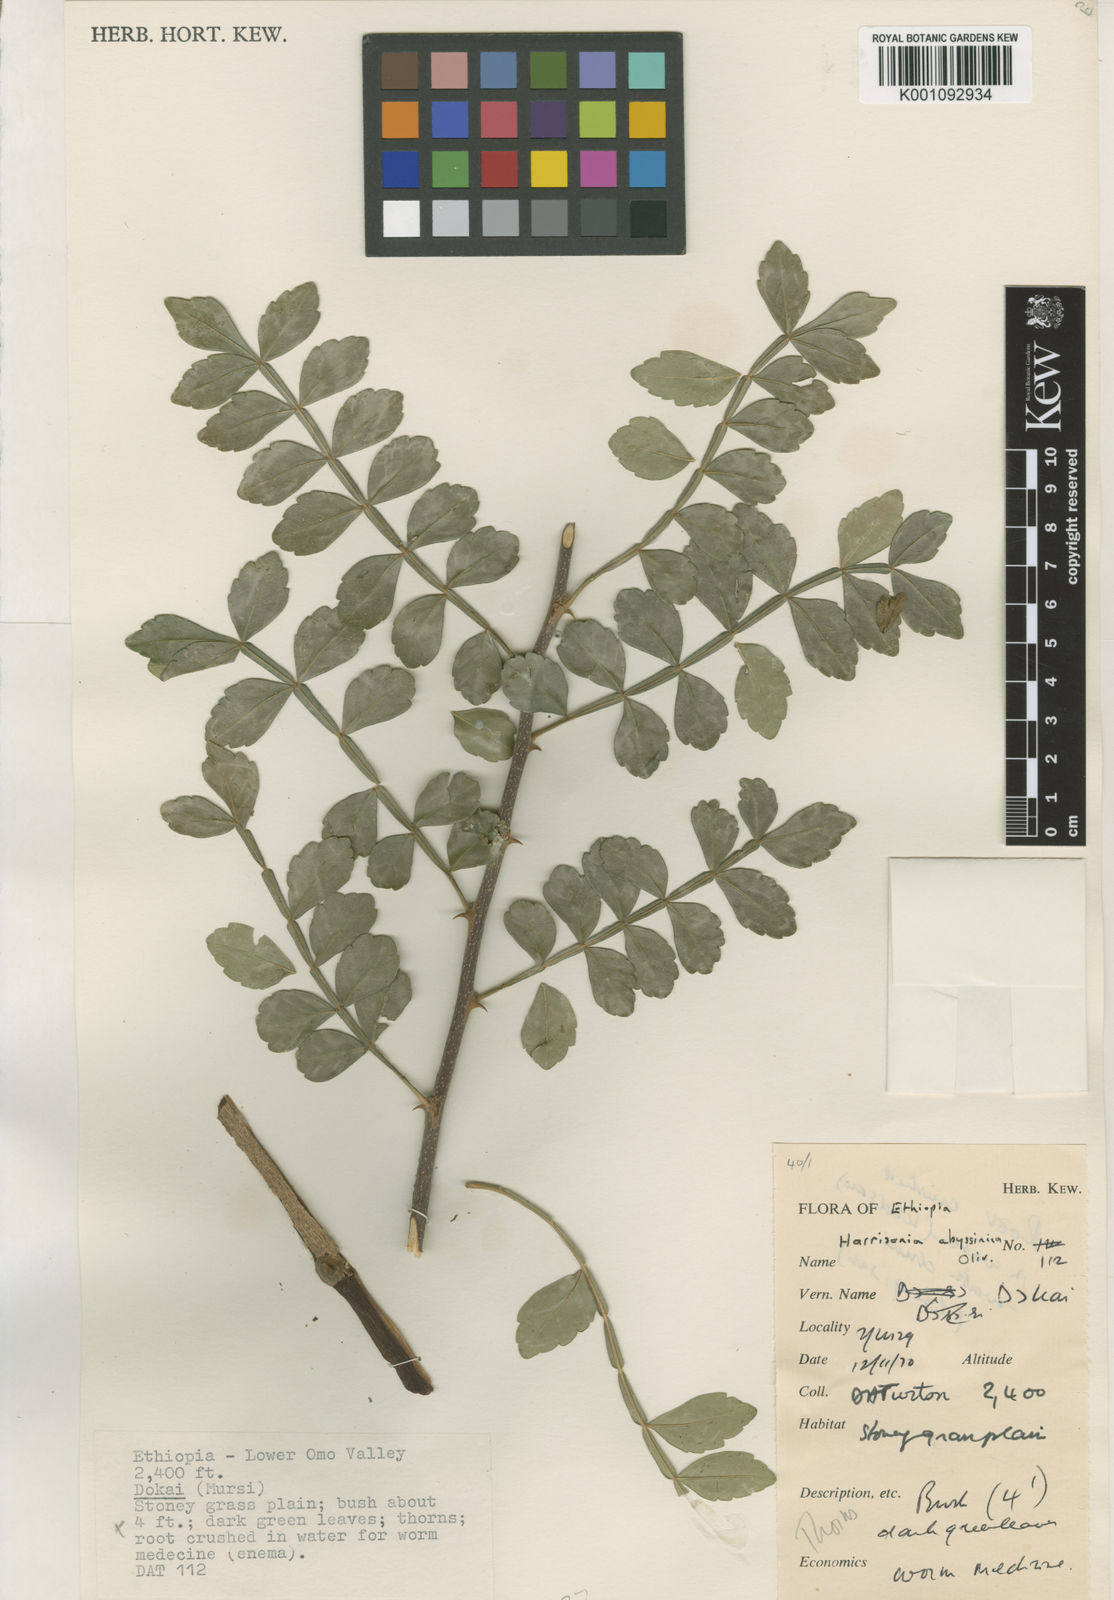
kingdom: Plantae
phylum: Tracheophyta
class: Magnoliopsida
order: Sapindales
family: Rutaceae
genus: Harrisonia
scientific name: Harrisonia abyssinica
